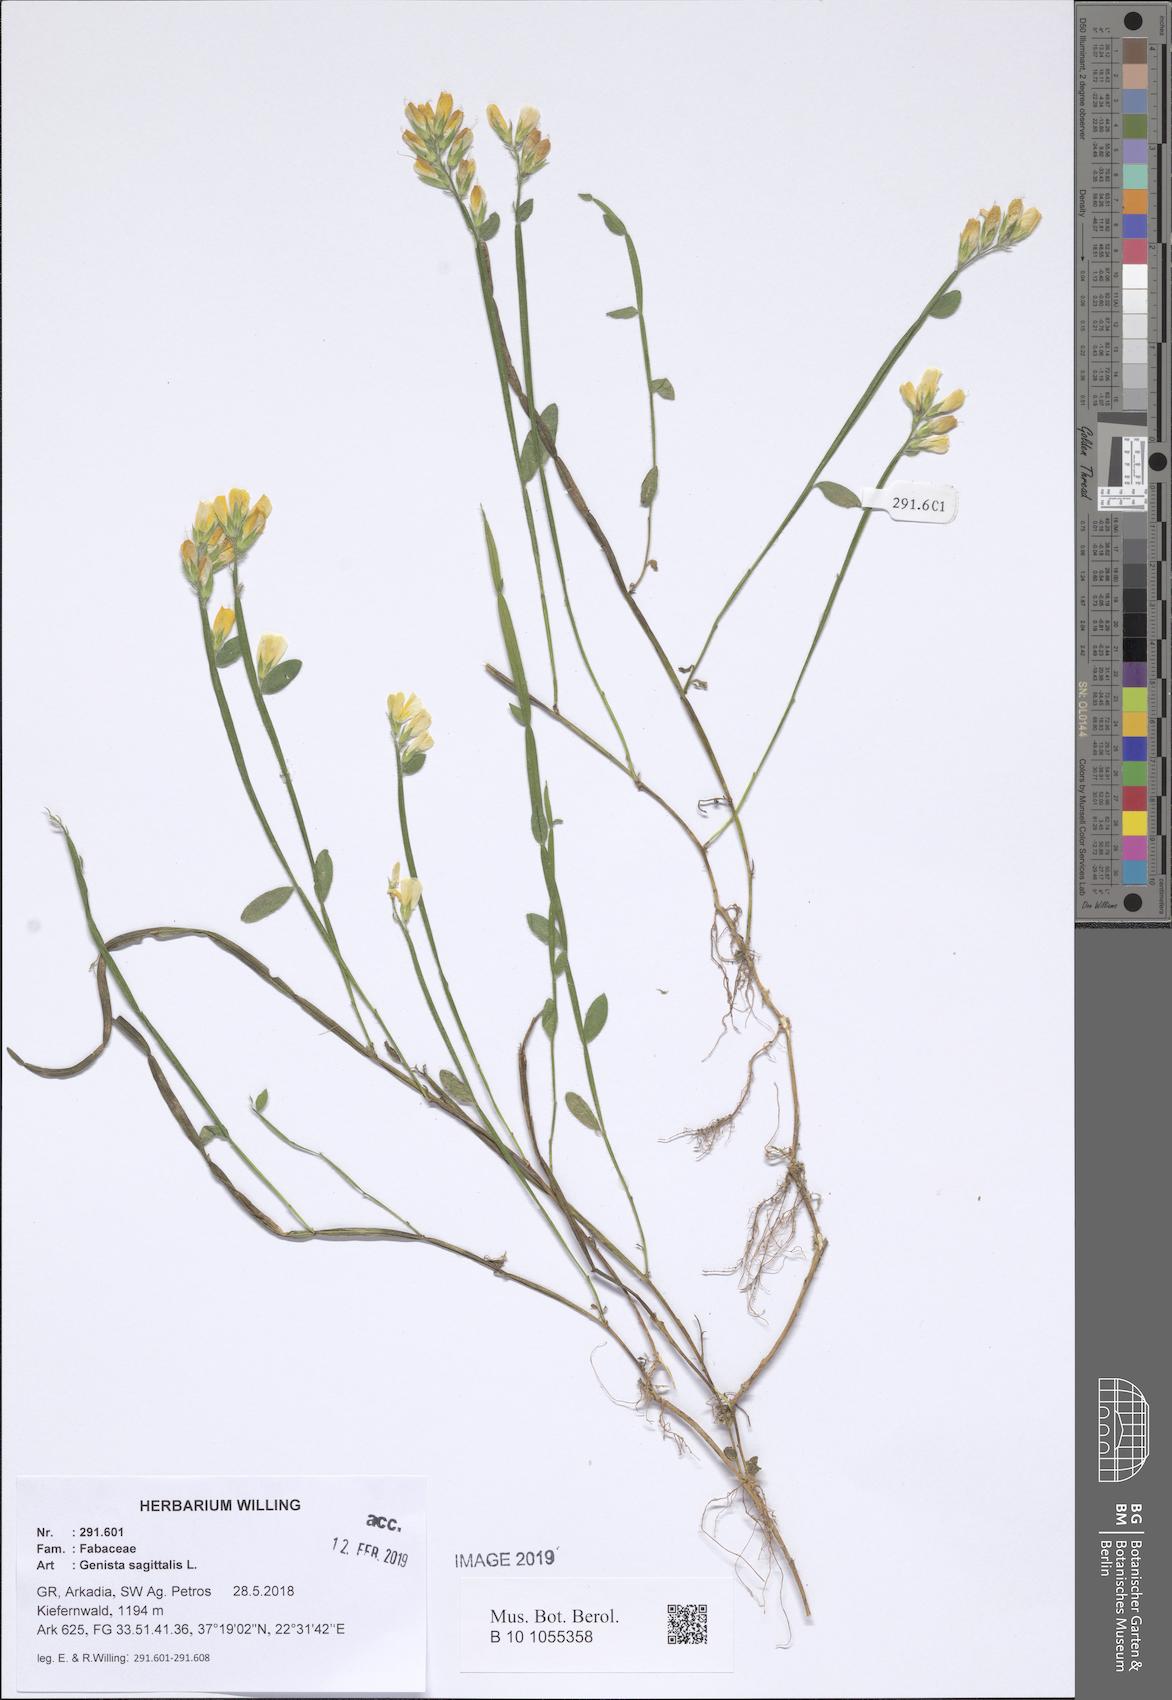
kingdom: Plantae
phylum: Tracheophyta
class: Magnoliopsida
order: Fabales
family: Fabaceae
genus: Genista
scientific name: Genista sagittalis
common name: Winged greenweed
